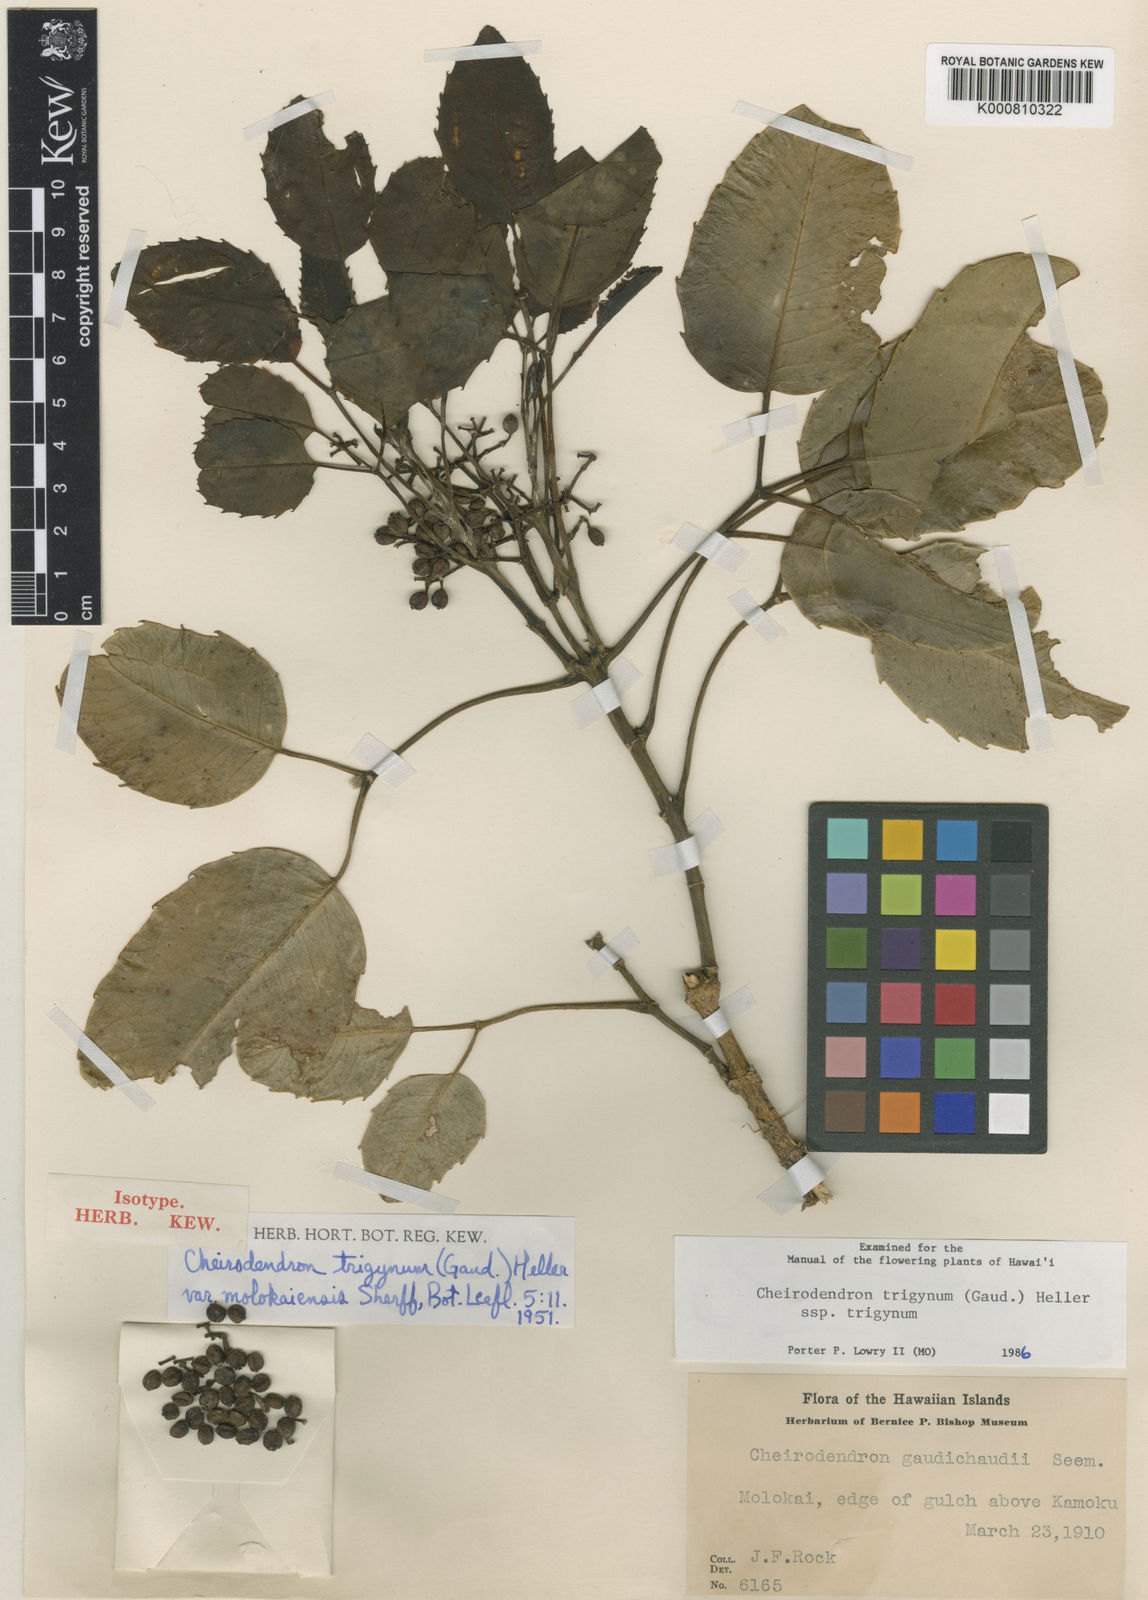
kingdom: Plantae
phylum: Tracheophyta
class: Magnoliopsida
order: Apiales
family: Araliaceae
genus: Cheirodendron
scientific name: Cheirodendron trigynum
